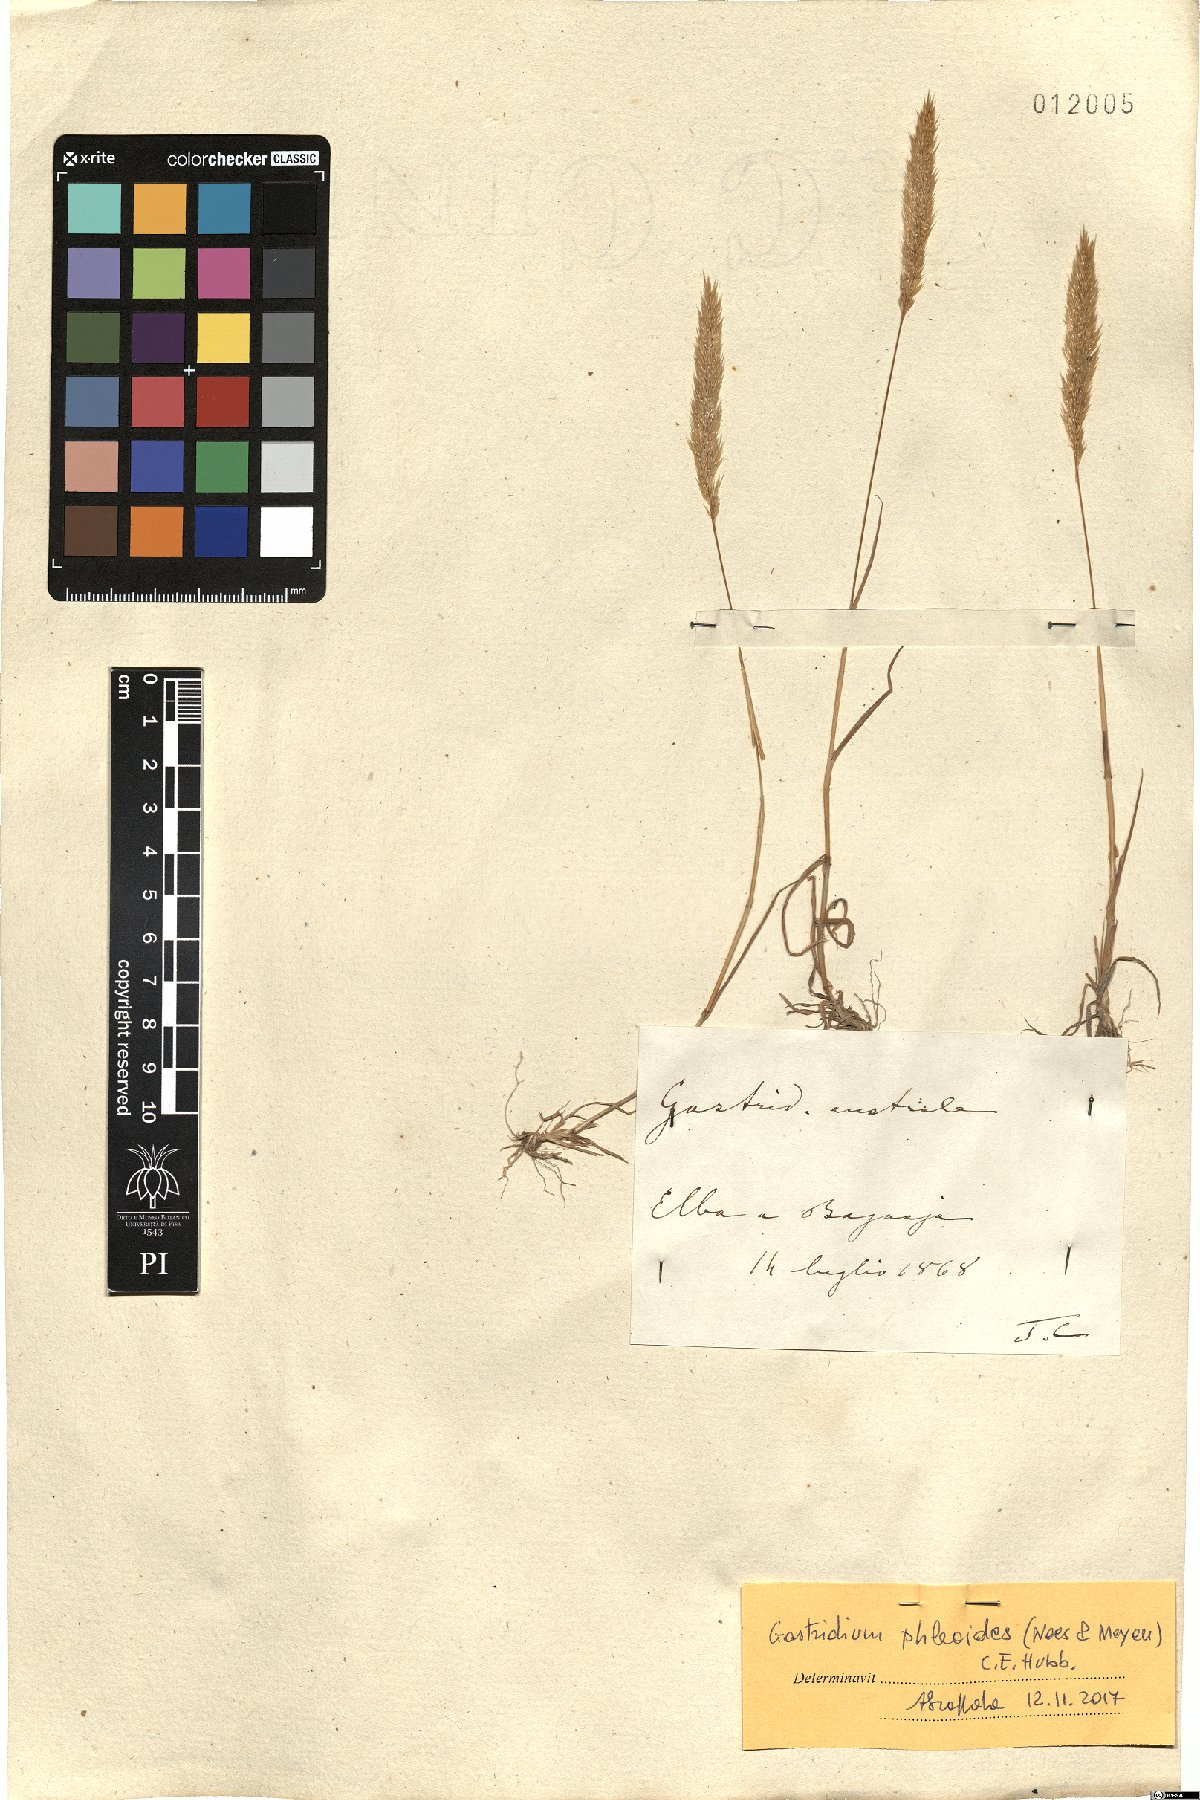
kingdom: Plantae
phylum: Tracheophyta
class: Liliopsida
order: Poales
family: Poaceae
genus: Gastridium
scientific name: Gastridium phleoides
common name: Nit grass
